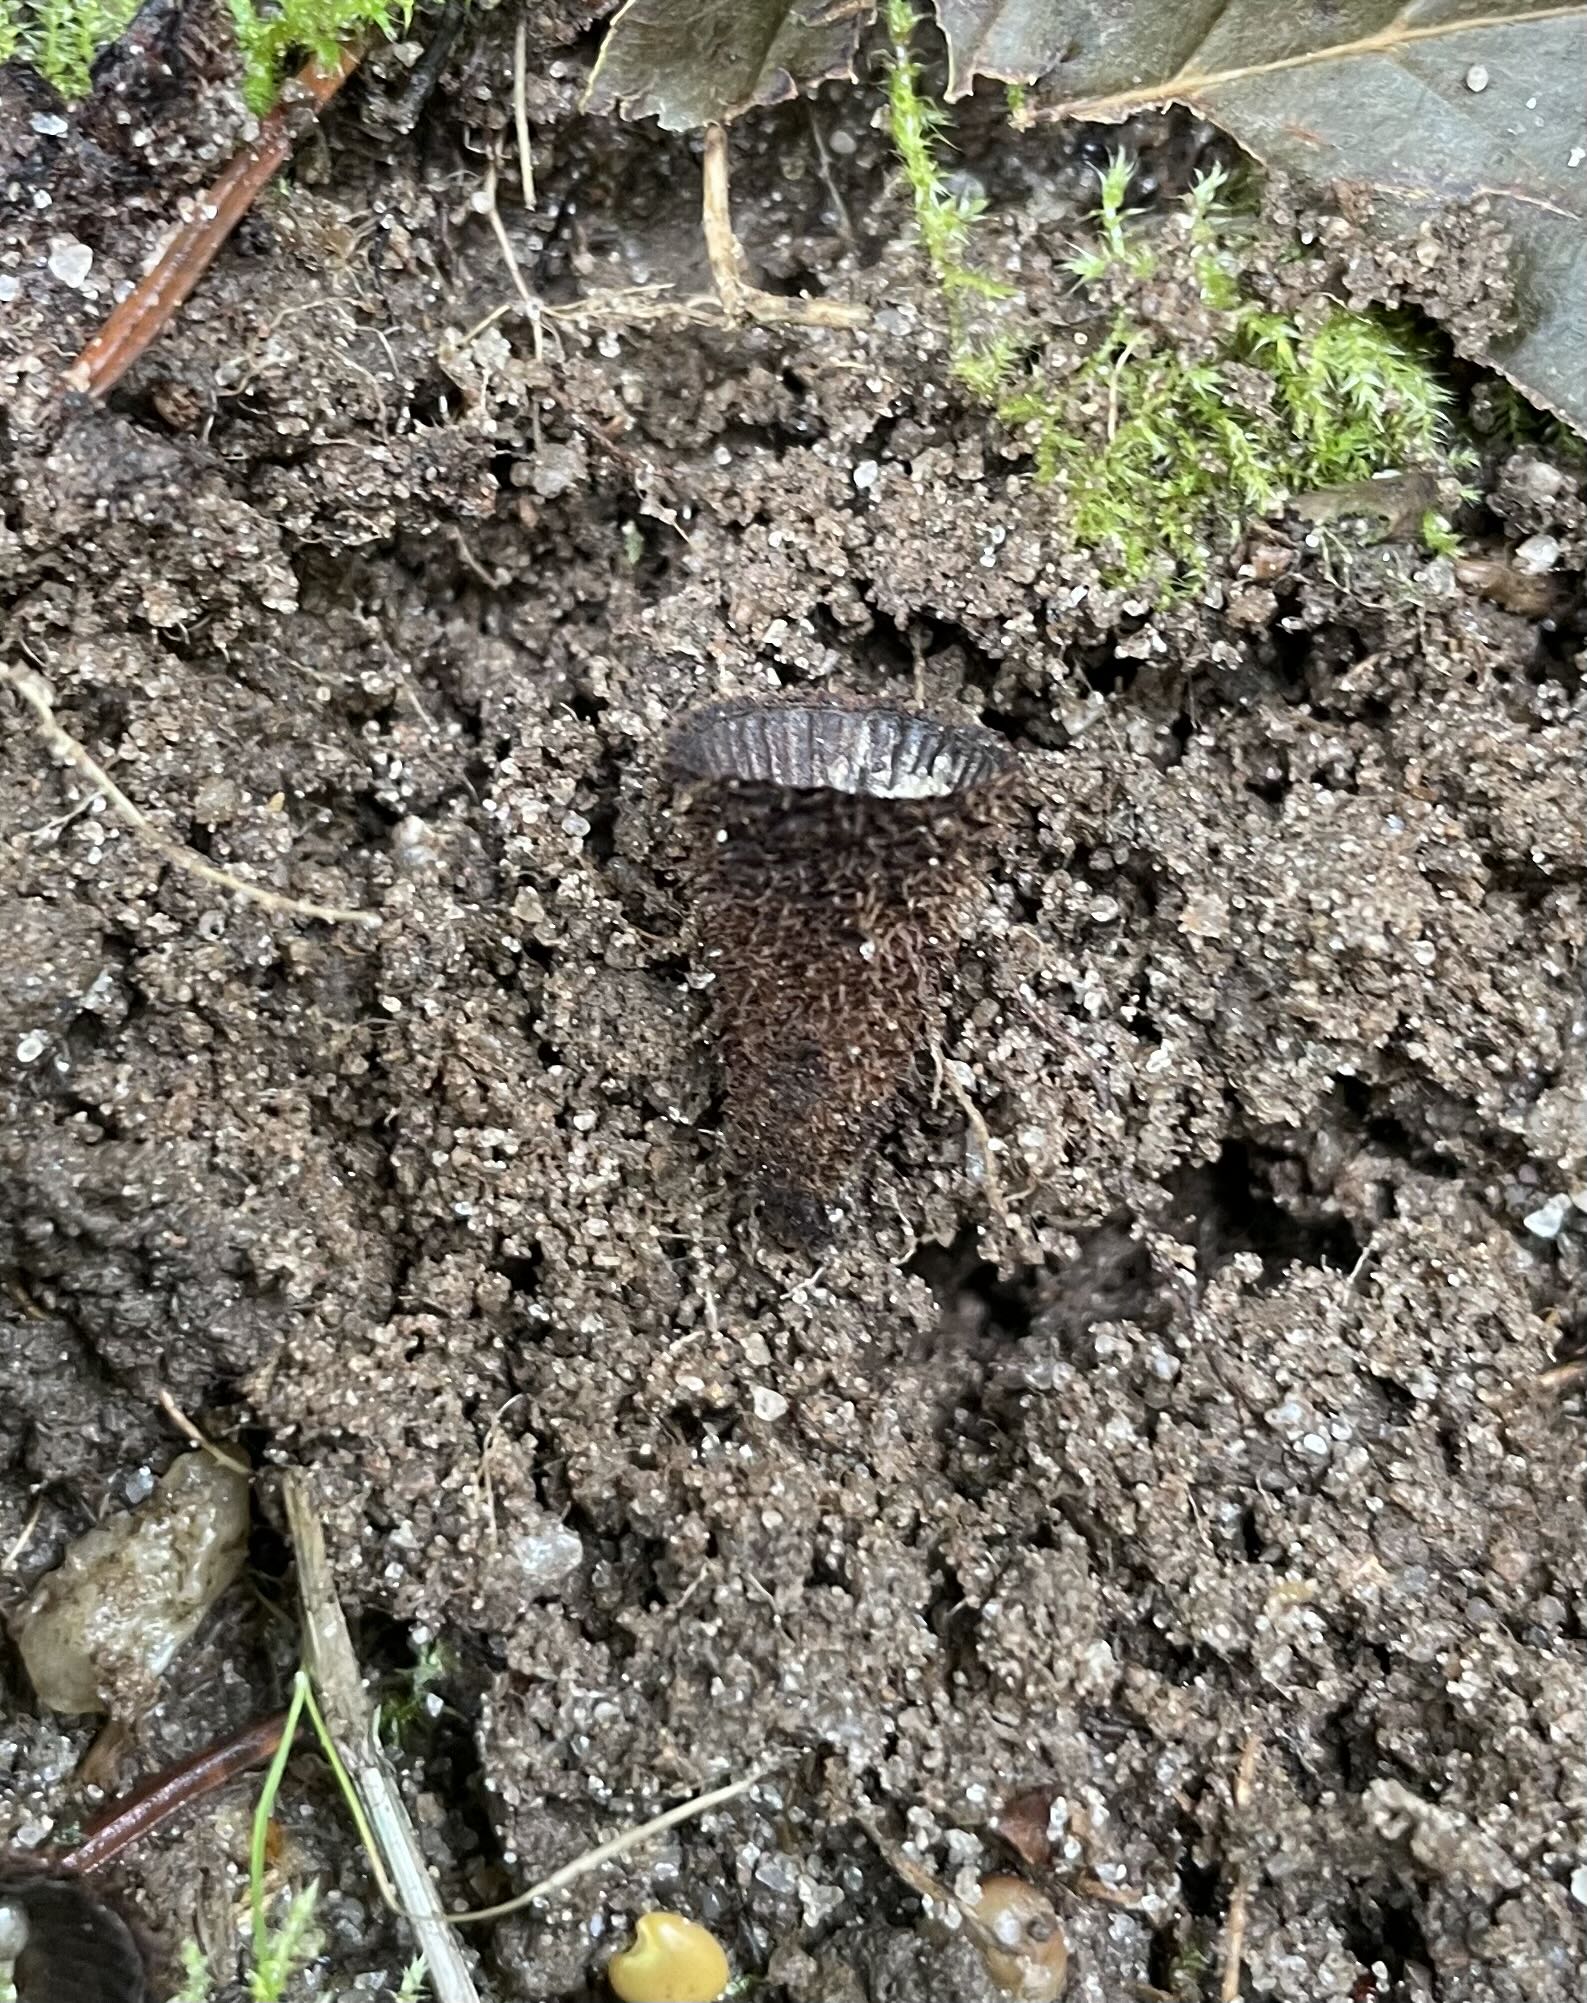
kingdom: Fungi
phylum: Basidiomycota
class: Agaricomycetes
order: Agaricales
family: Agaricaceae
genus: Cyathus
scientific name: Cyathus striatus
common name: stribet redesvamp
